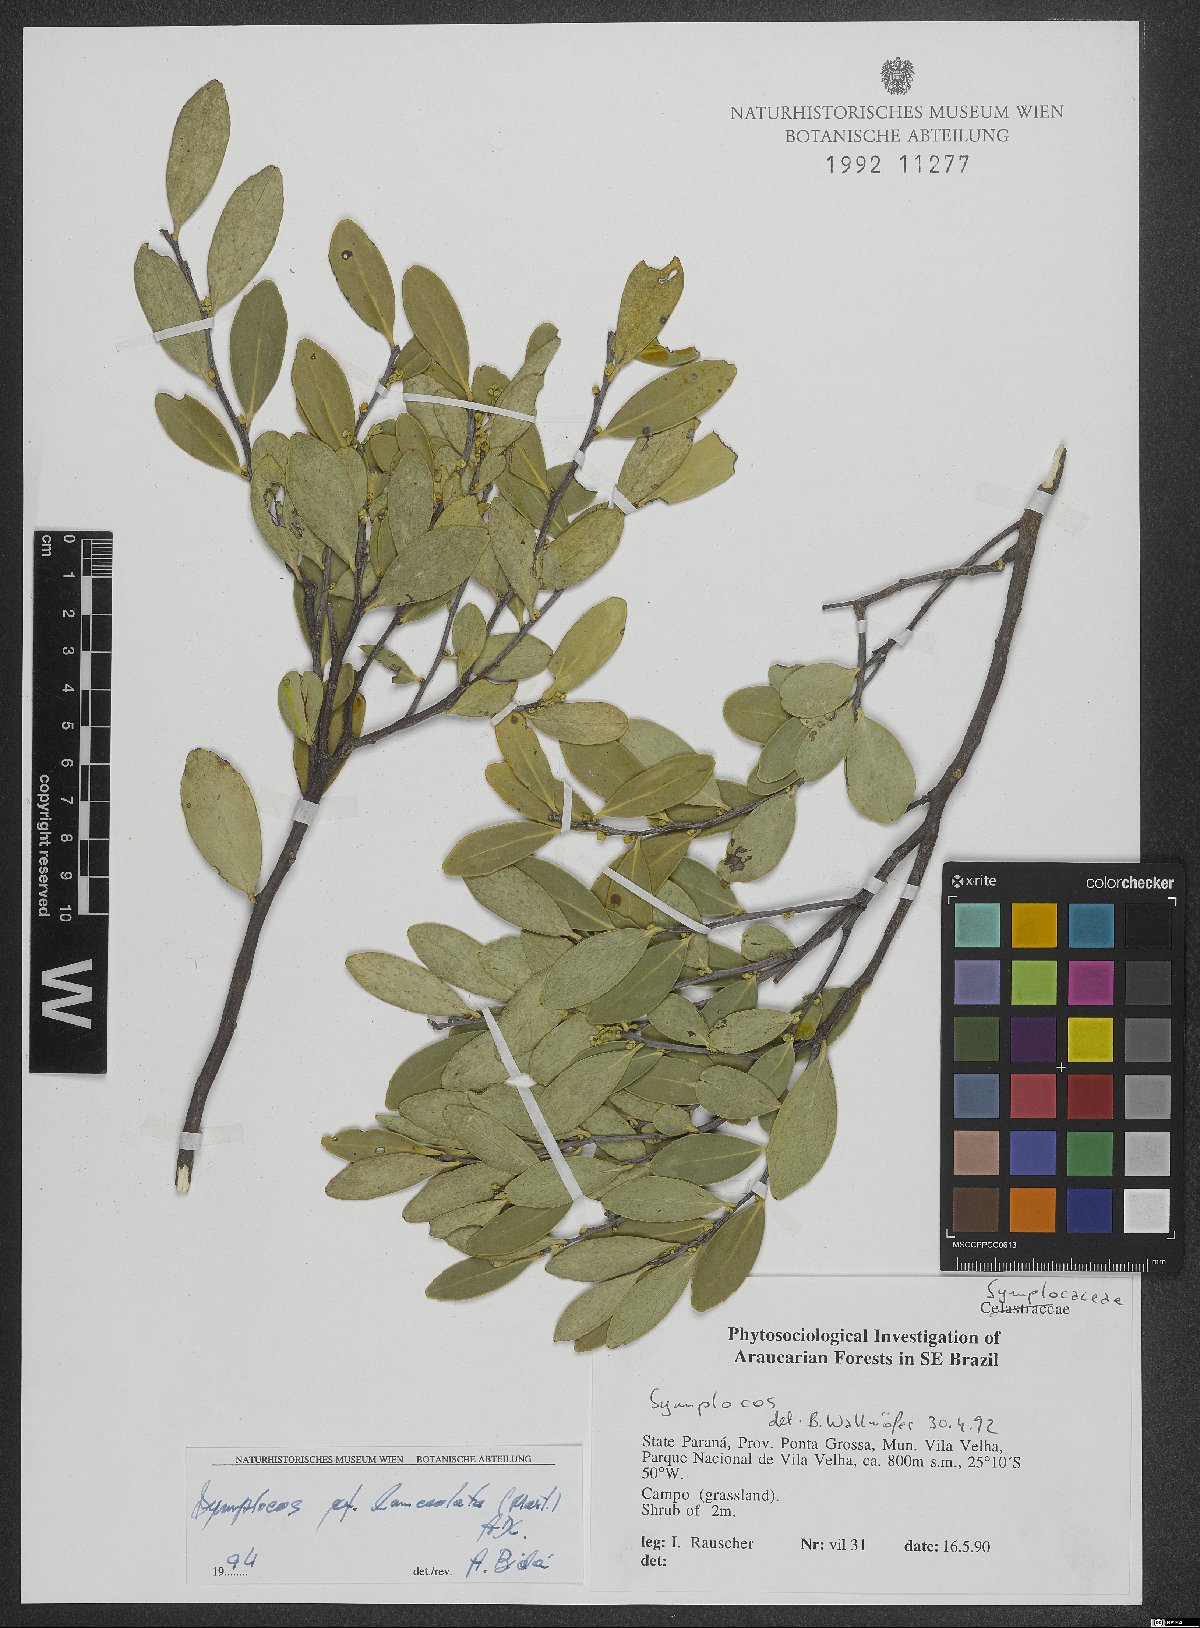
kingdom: Plantae
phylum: Tracheophyta
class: Magnoliopsida
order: Ericales
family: Symplocaceae
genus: Symplocos
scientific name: Symplocos oblongifolia
